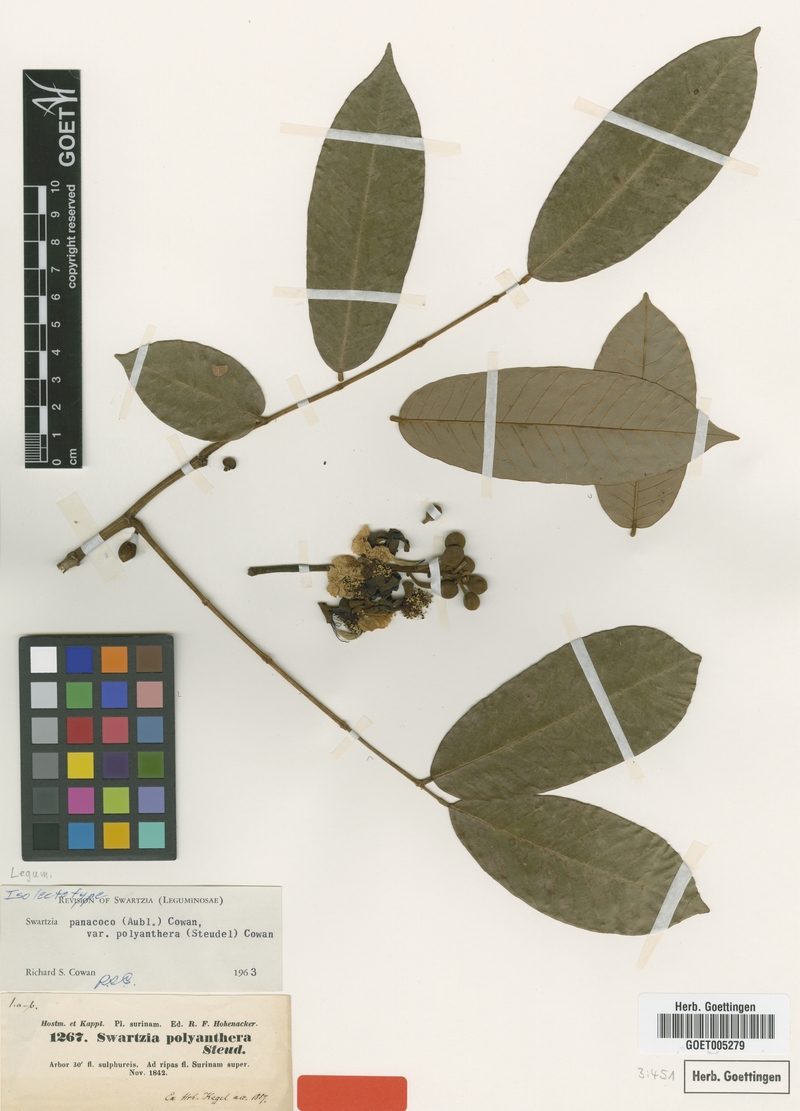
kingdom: Plantae
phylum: Tracheophyta
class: Magnoliopsida
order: Fabales
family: Fabaceae
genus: Swartzia
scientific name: Swartzia panacoco
